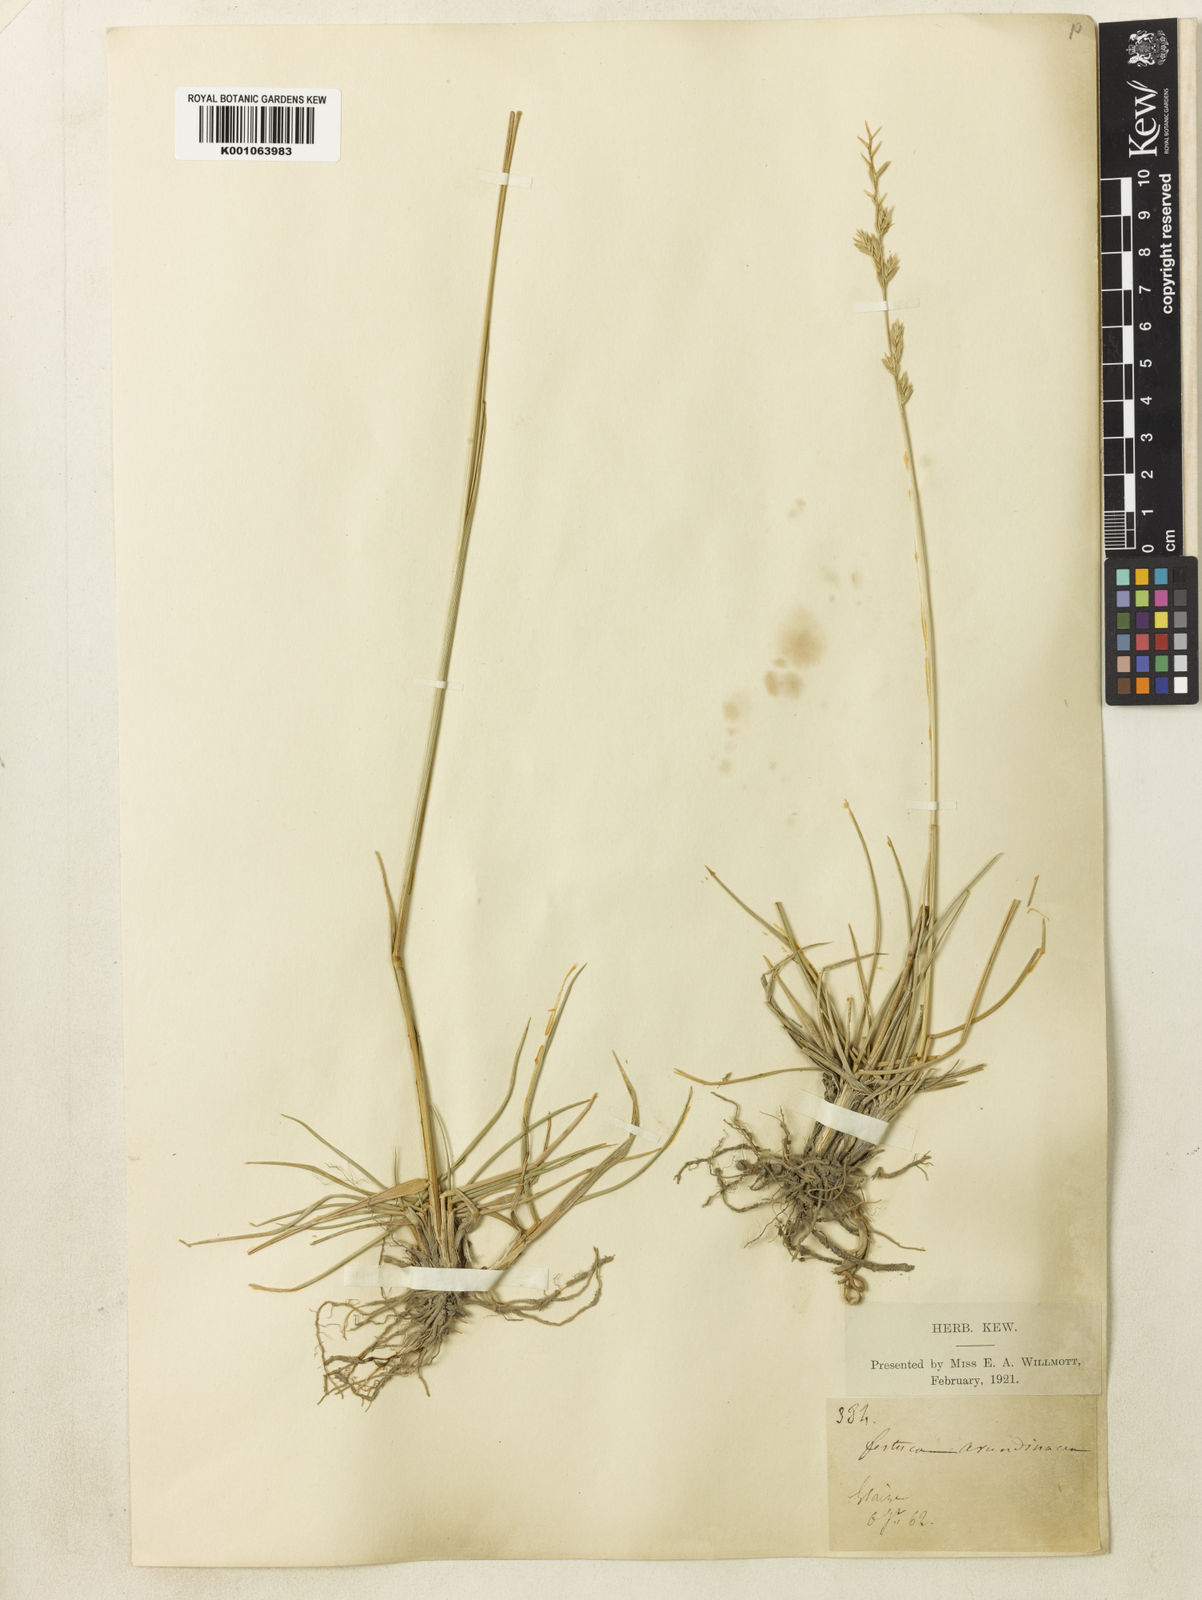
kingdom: Plantae
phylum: Tracheophyta
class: Liliopsida
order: Poales
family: Poaceae
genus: Lolium
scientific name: Lolium arundinaceum
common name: Reed fescue
